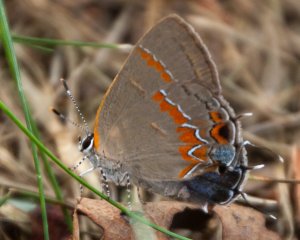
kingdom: Animalia
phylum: Arthropoda
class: Insecta
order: Lepidoptera
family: Lycaenidae
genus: Calycopis
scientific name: Calycopis cecrops
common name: Red-banded Hairstreak
